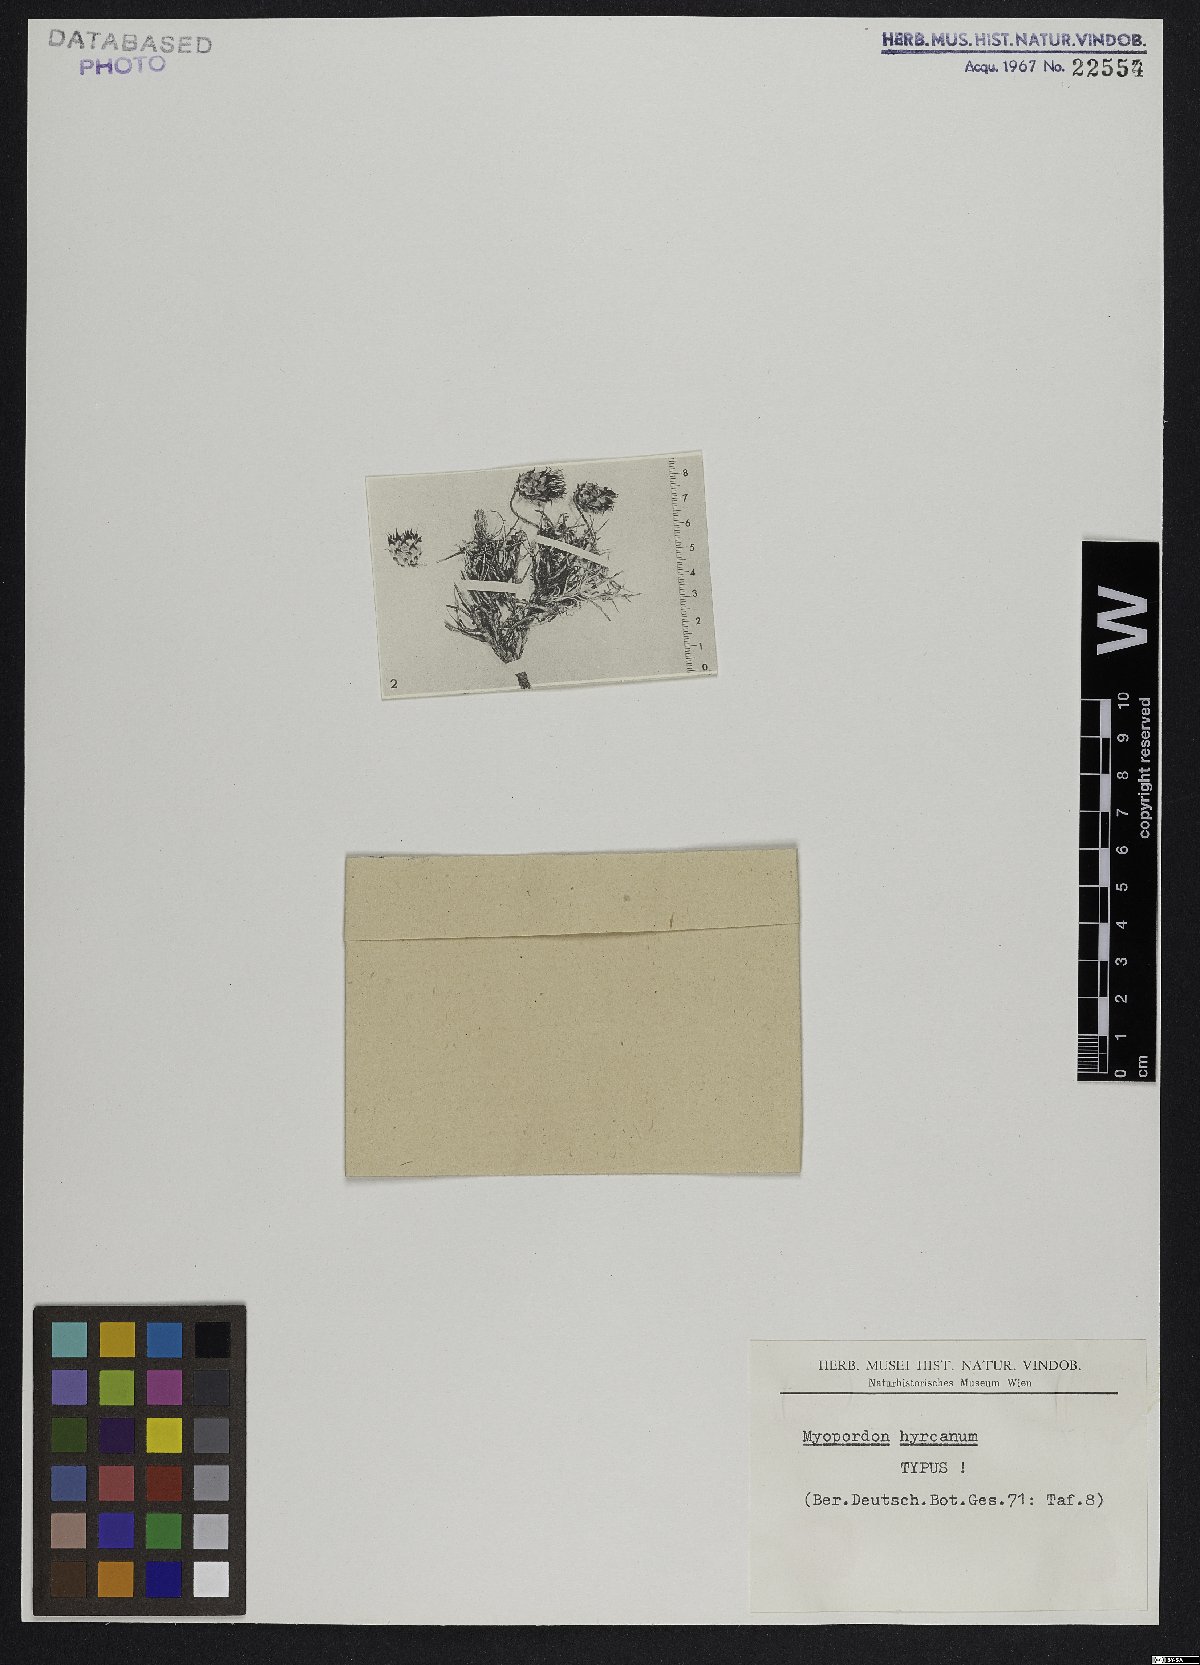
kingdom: Plantae
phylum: Tracheophyta
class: Magnoliopsida
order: Asterales
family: Asteraceae
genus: Myopordon
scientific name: Myopordon hyrcanum
